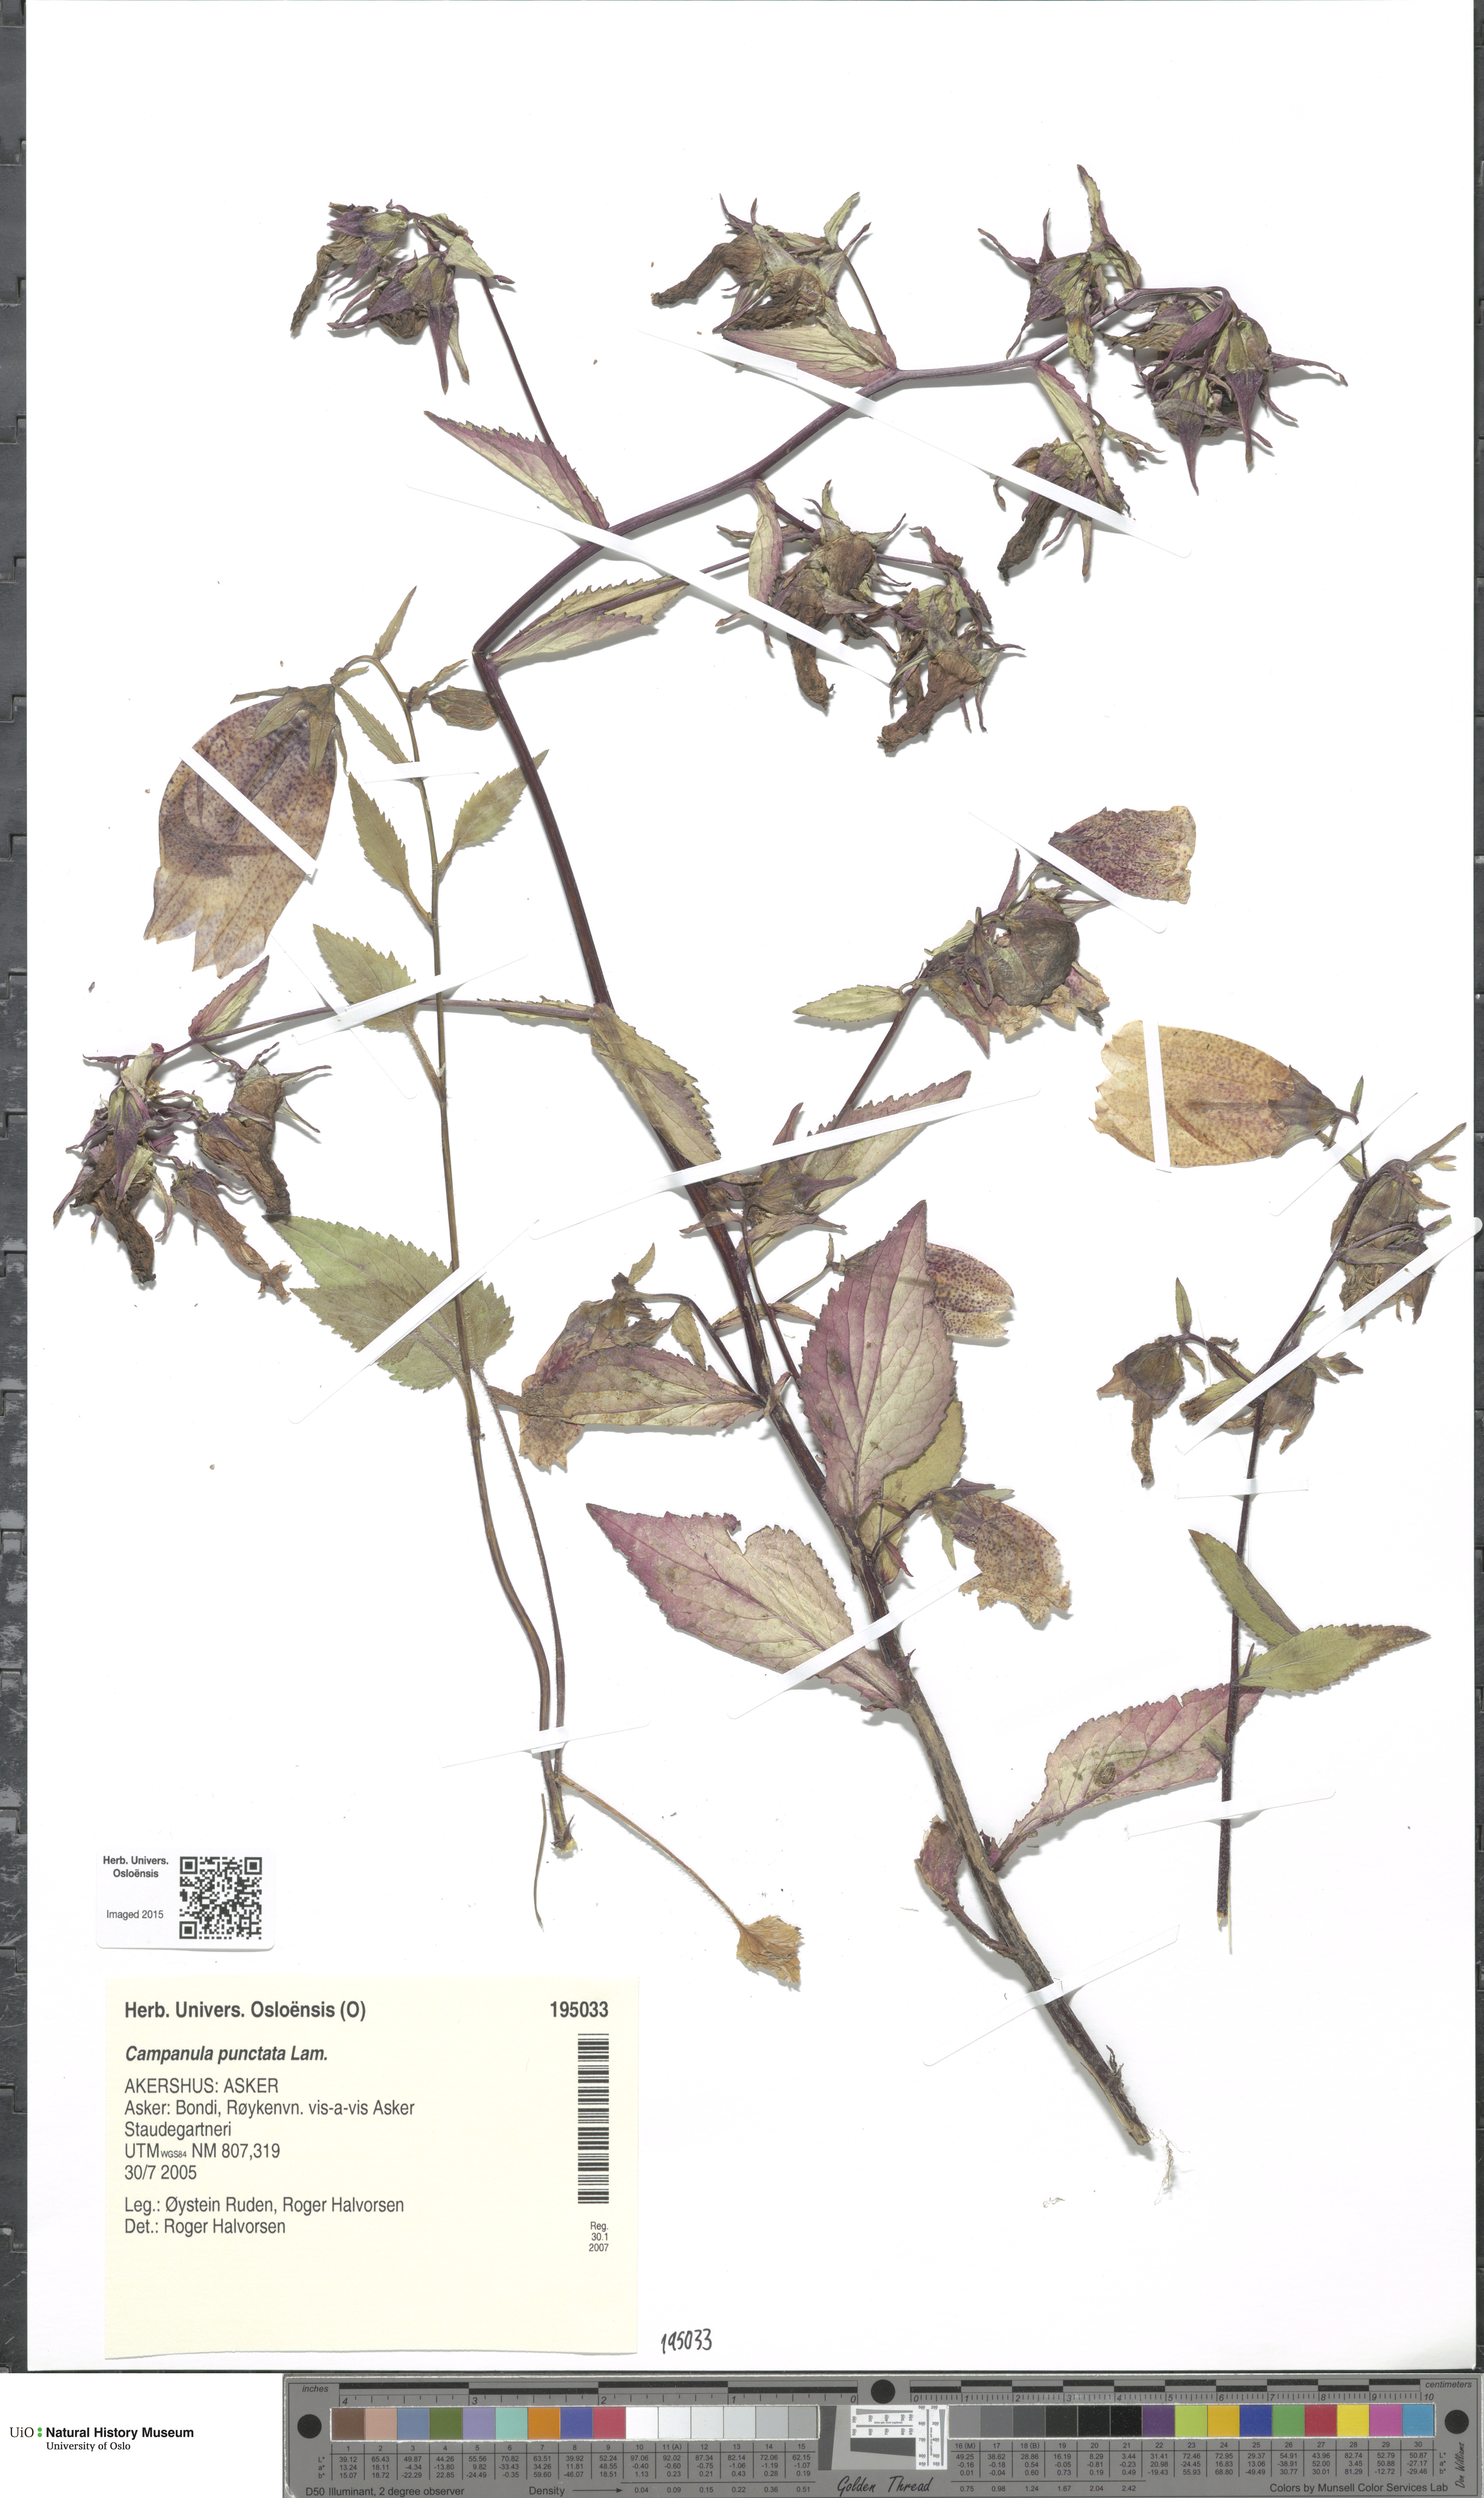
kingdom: Plantae
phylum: Tracheophyta
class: Magnoliopsida
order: Asterales
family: Campanulaceae
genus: Campanula
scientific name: Campanula punctata
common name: Spotted bellflower
